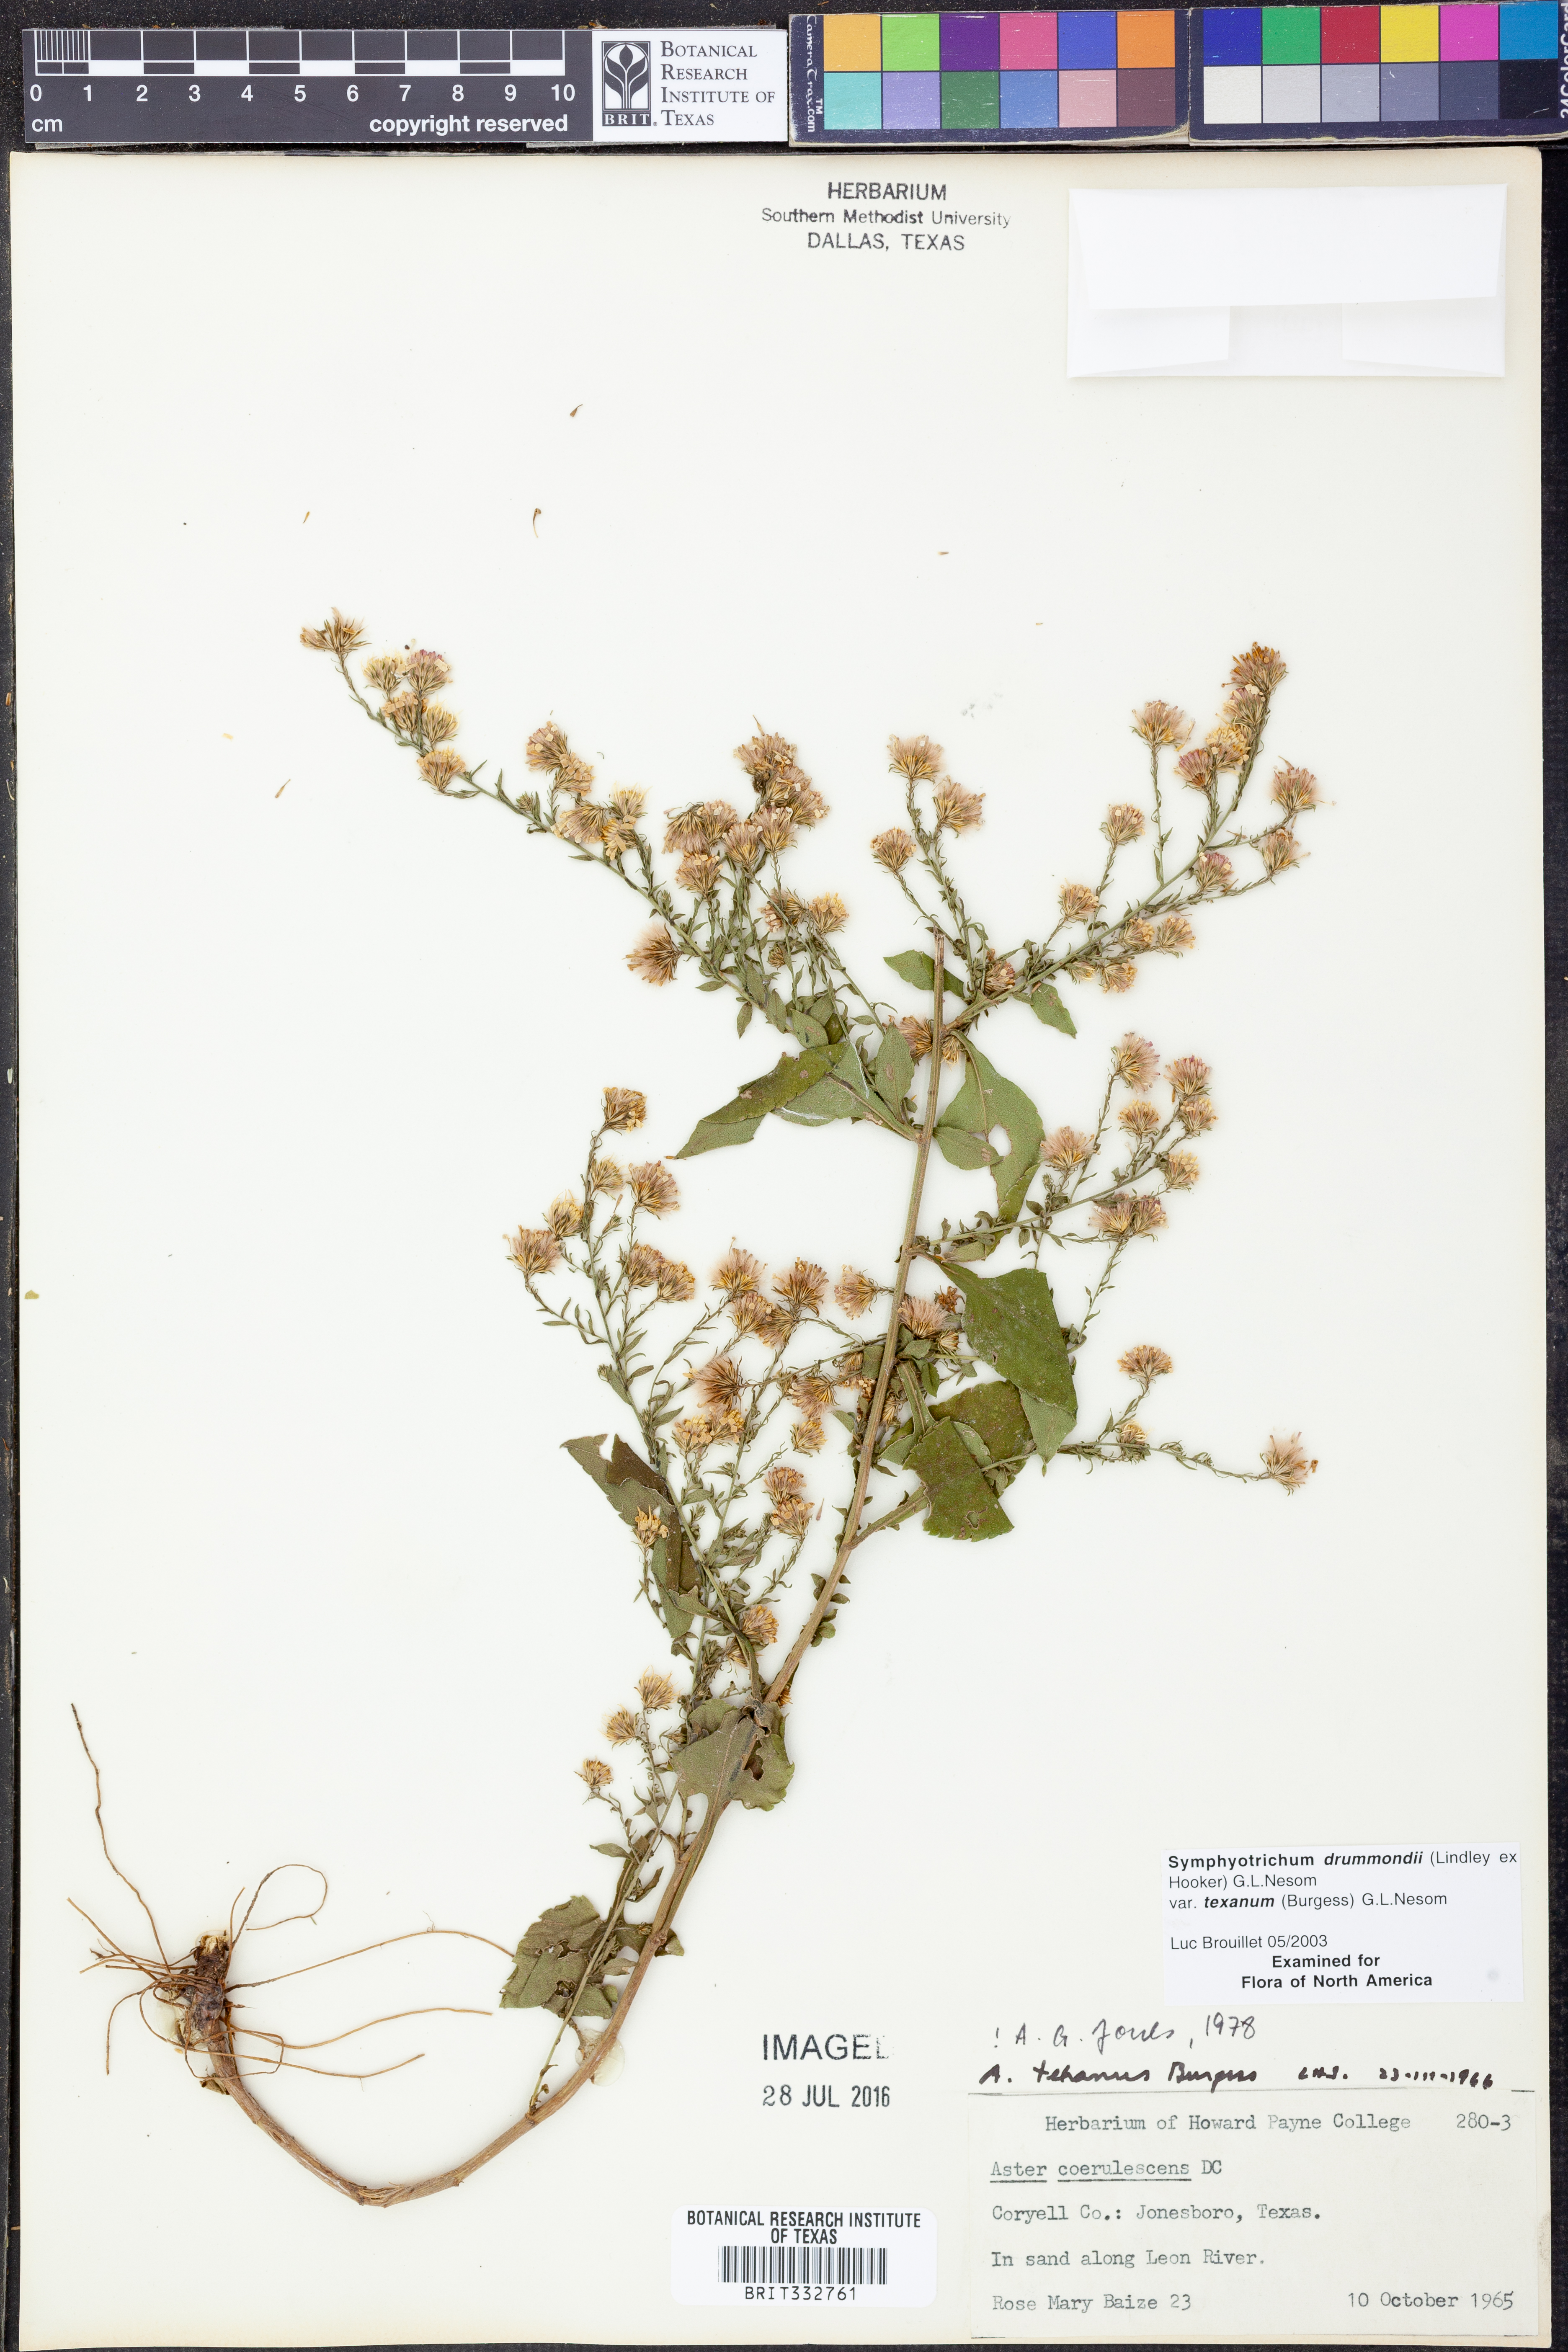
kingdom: Plantae
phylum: Tracheophyta
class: Magnoliopsida
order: Asterales
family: Asteraceae
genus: Symphyotrichum
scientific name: Symphyotrichum drummondii
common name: Drummond's aster
